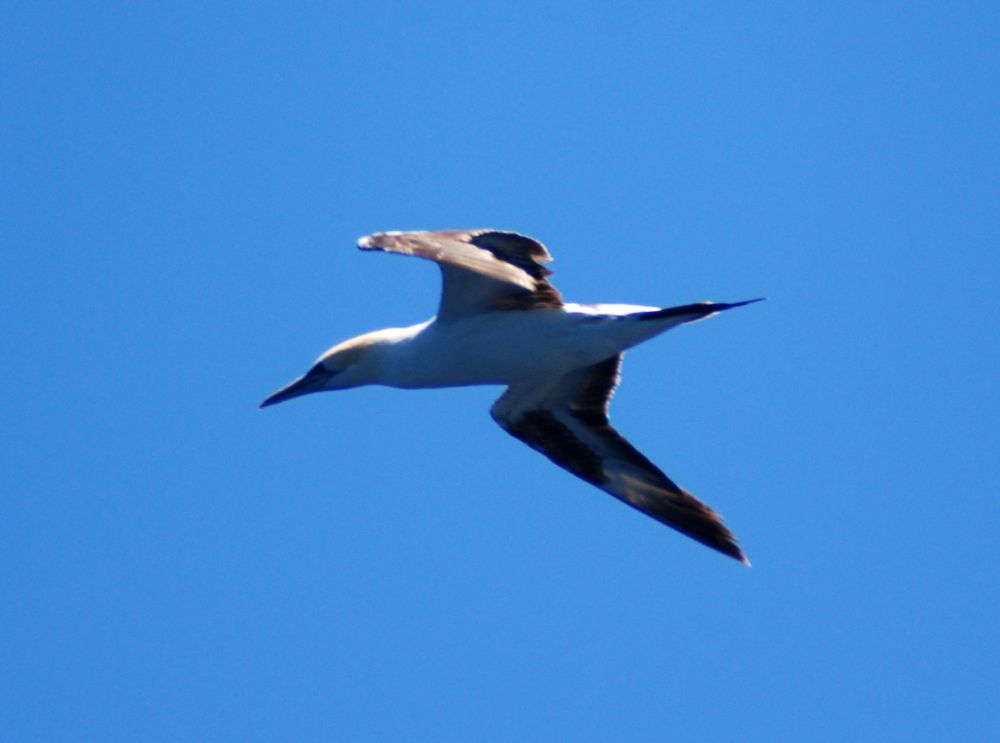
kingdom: Animalia
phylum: Chordata
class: Aves
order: Suliformes
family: Sulidae
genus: Morus
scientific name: Morus serrator
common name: Australasian gannet
